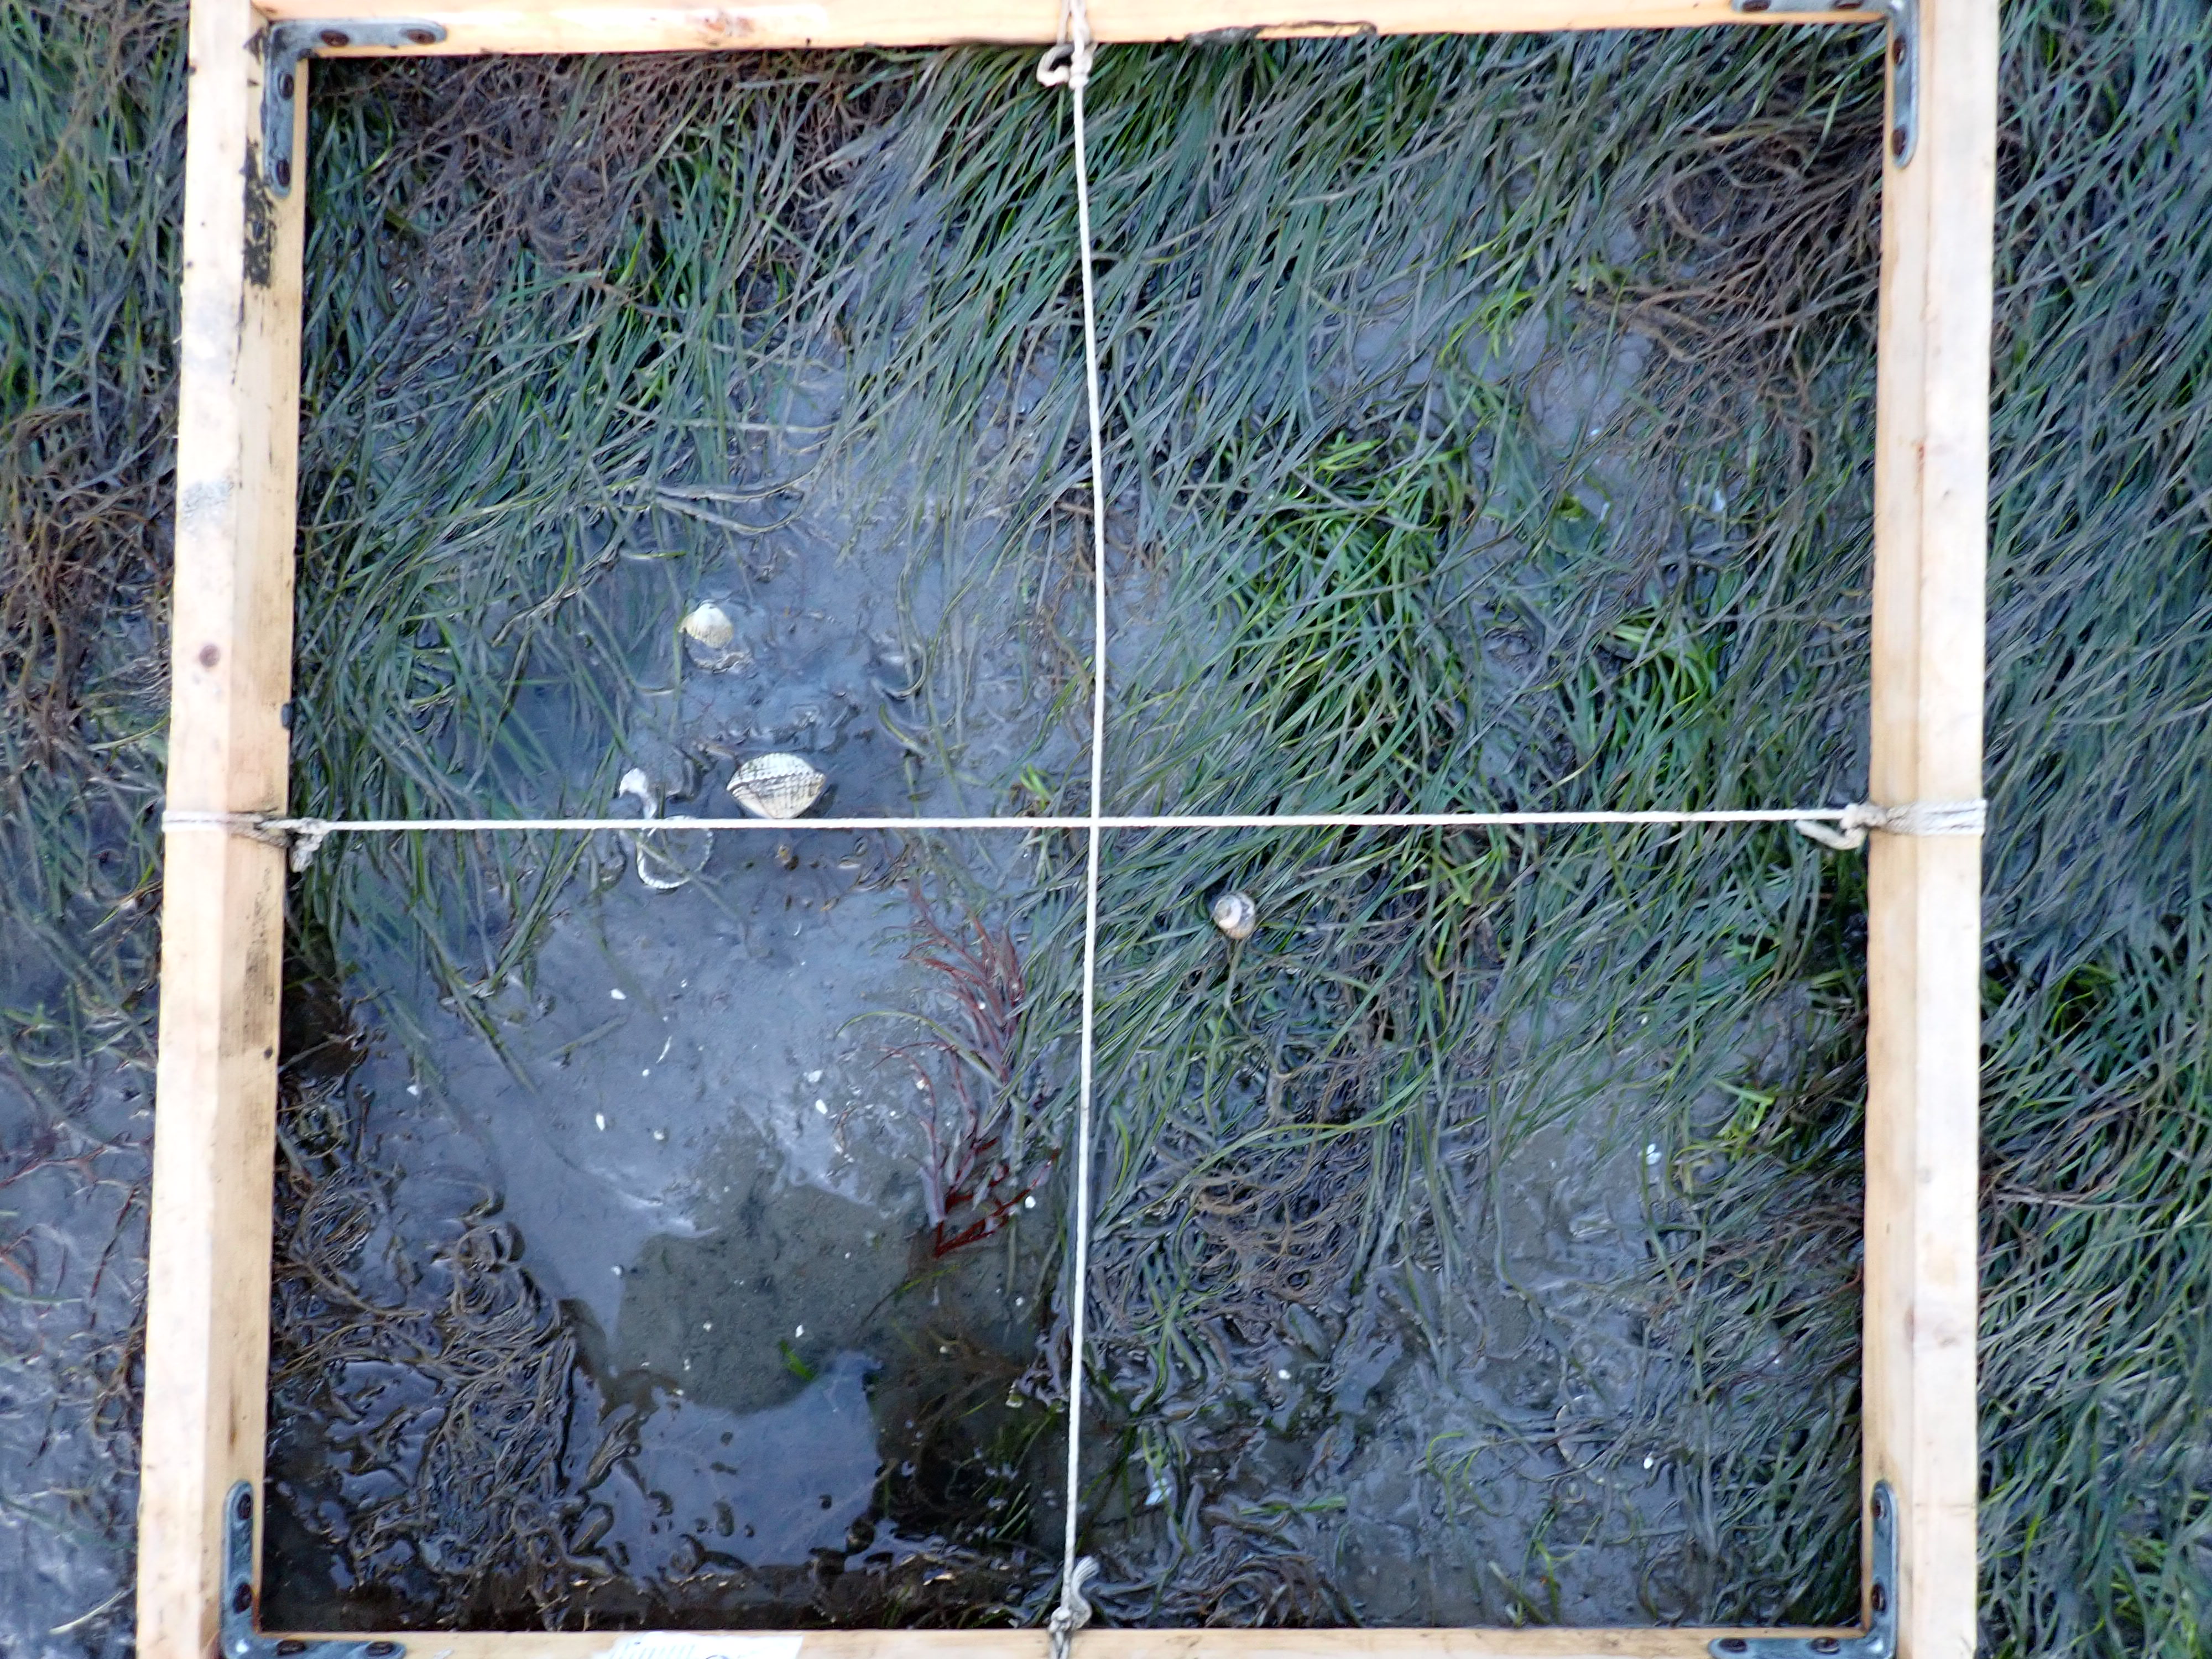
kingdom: Plantae
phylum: Rhodophyta
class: Florideophyceae
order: Gracilariales
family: Gracilariaceae
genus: Gracilaria
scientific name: Gracilaria vermiculophylla
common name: Algae
